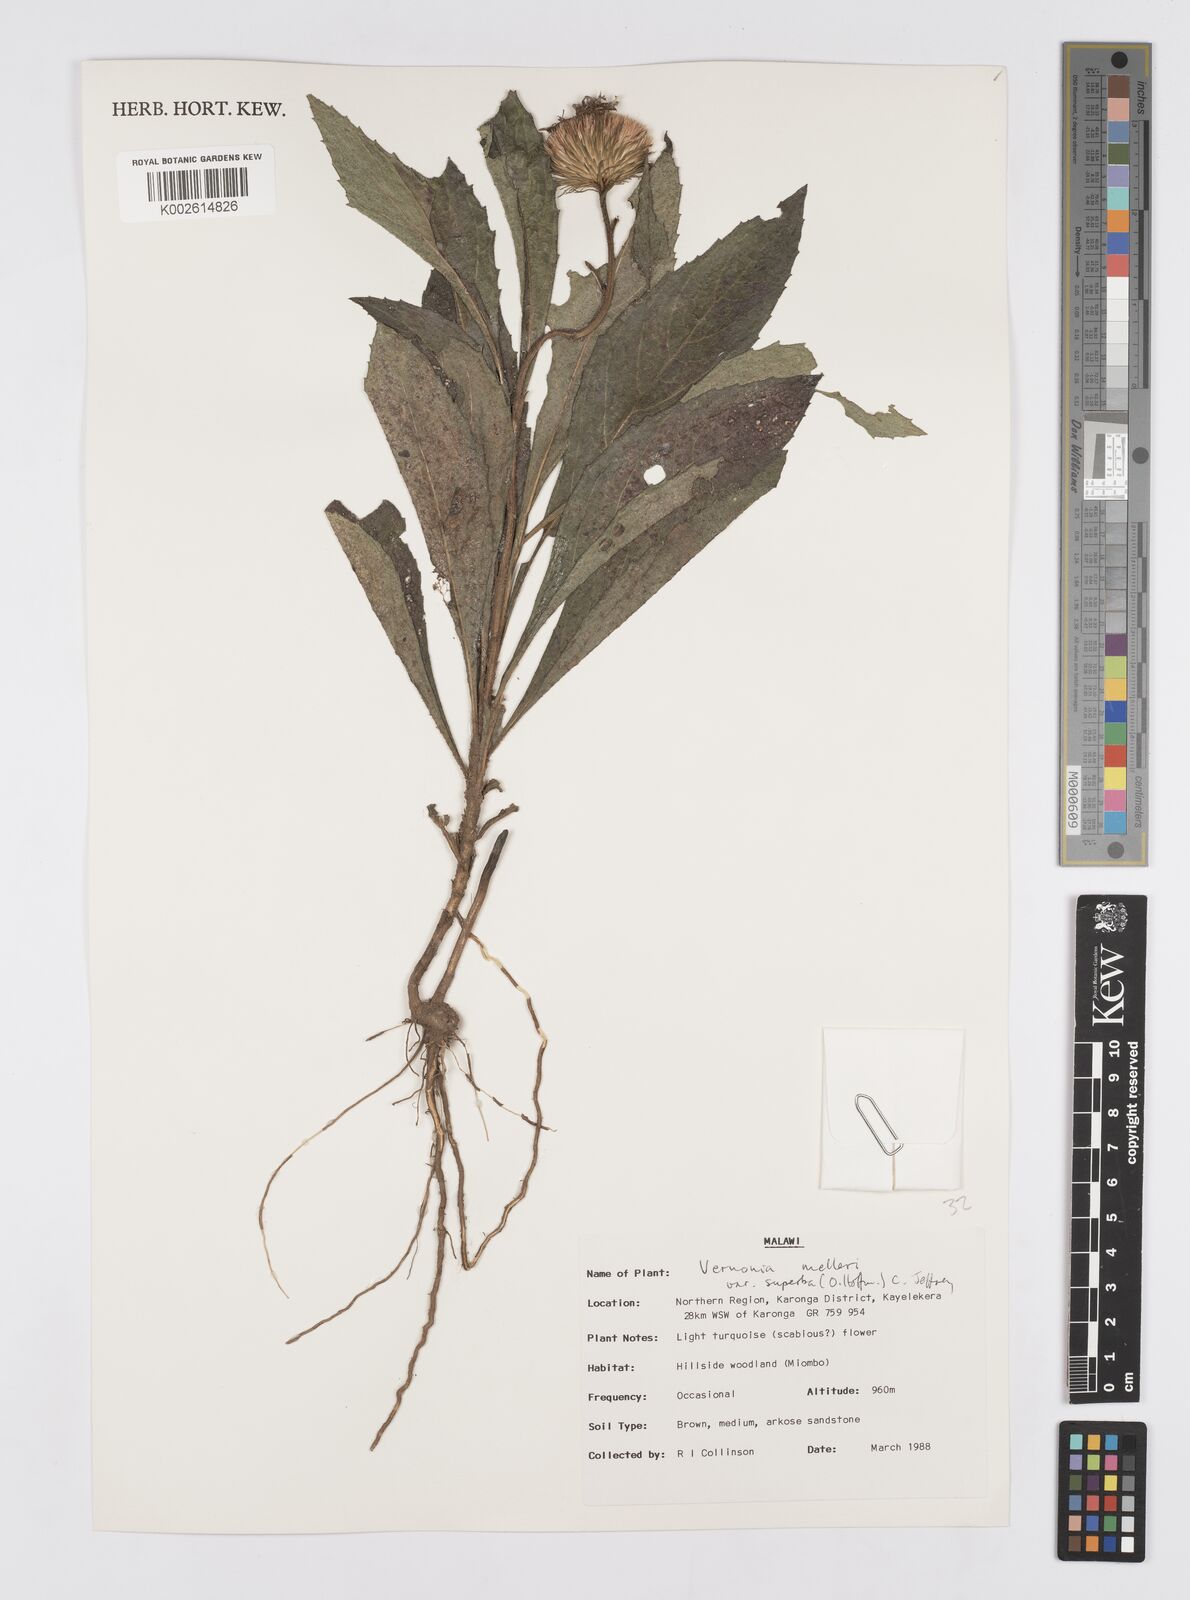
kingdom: Plantae
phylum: Tracheophyta
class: Magnoliopsida
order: Asterales
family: Asteraceae
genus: Linzia
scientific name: Linzia melleri
